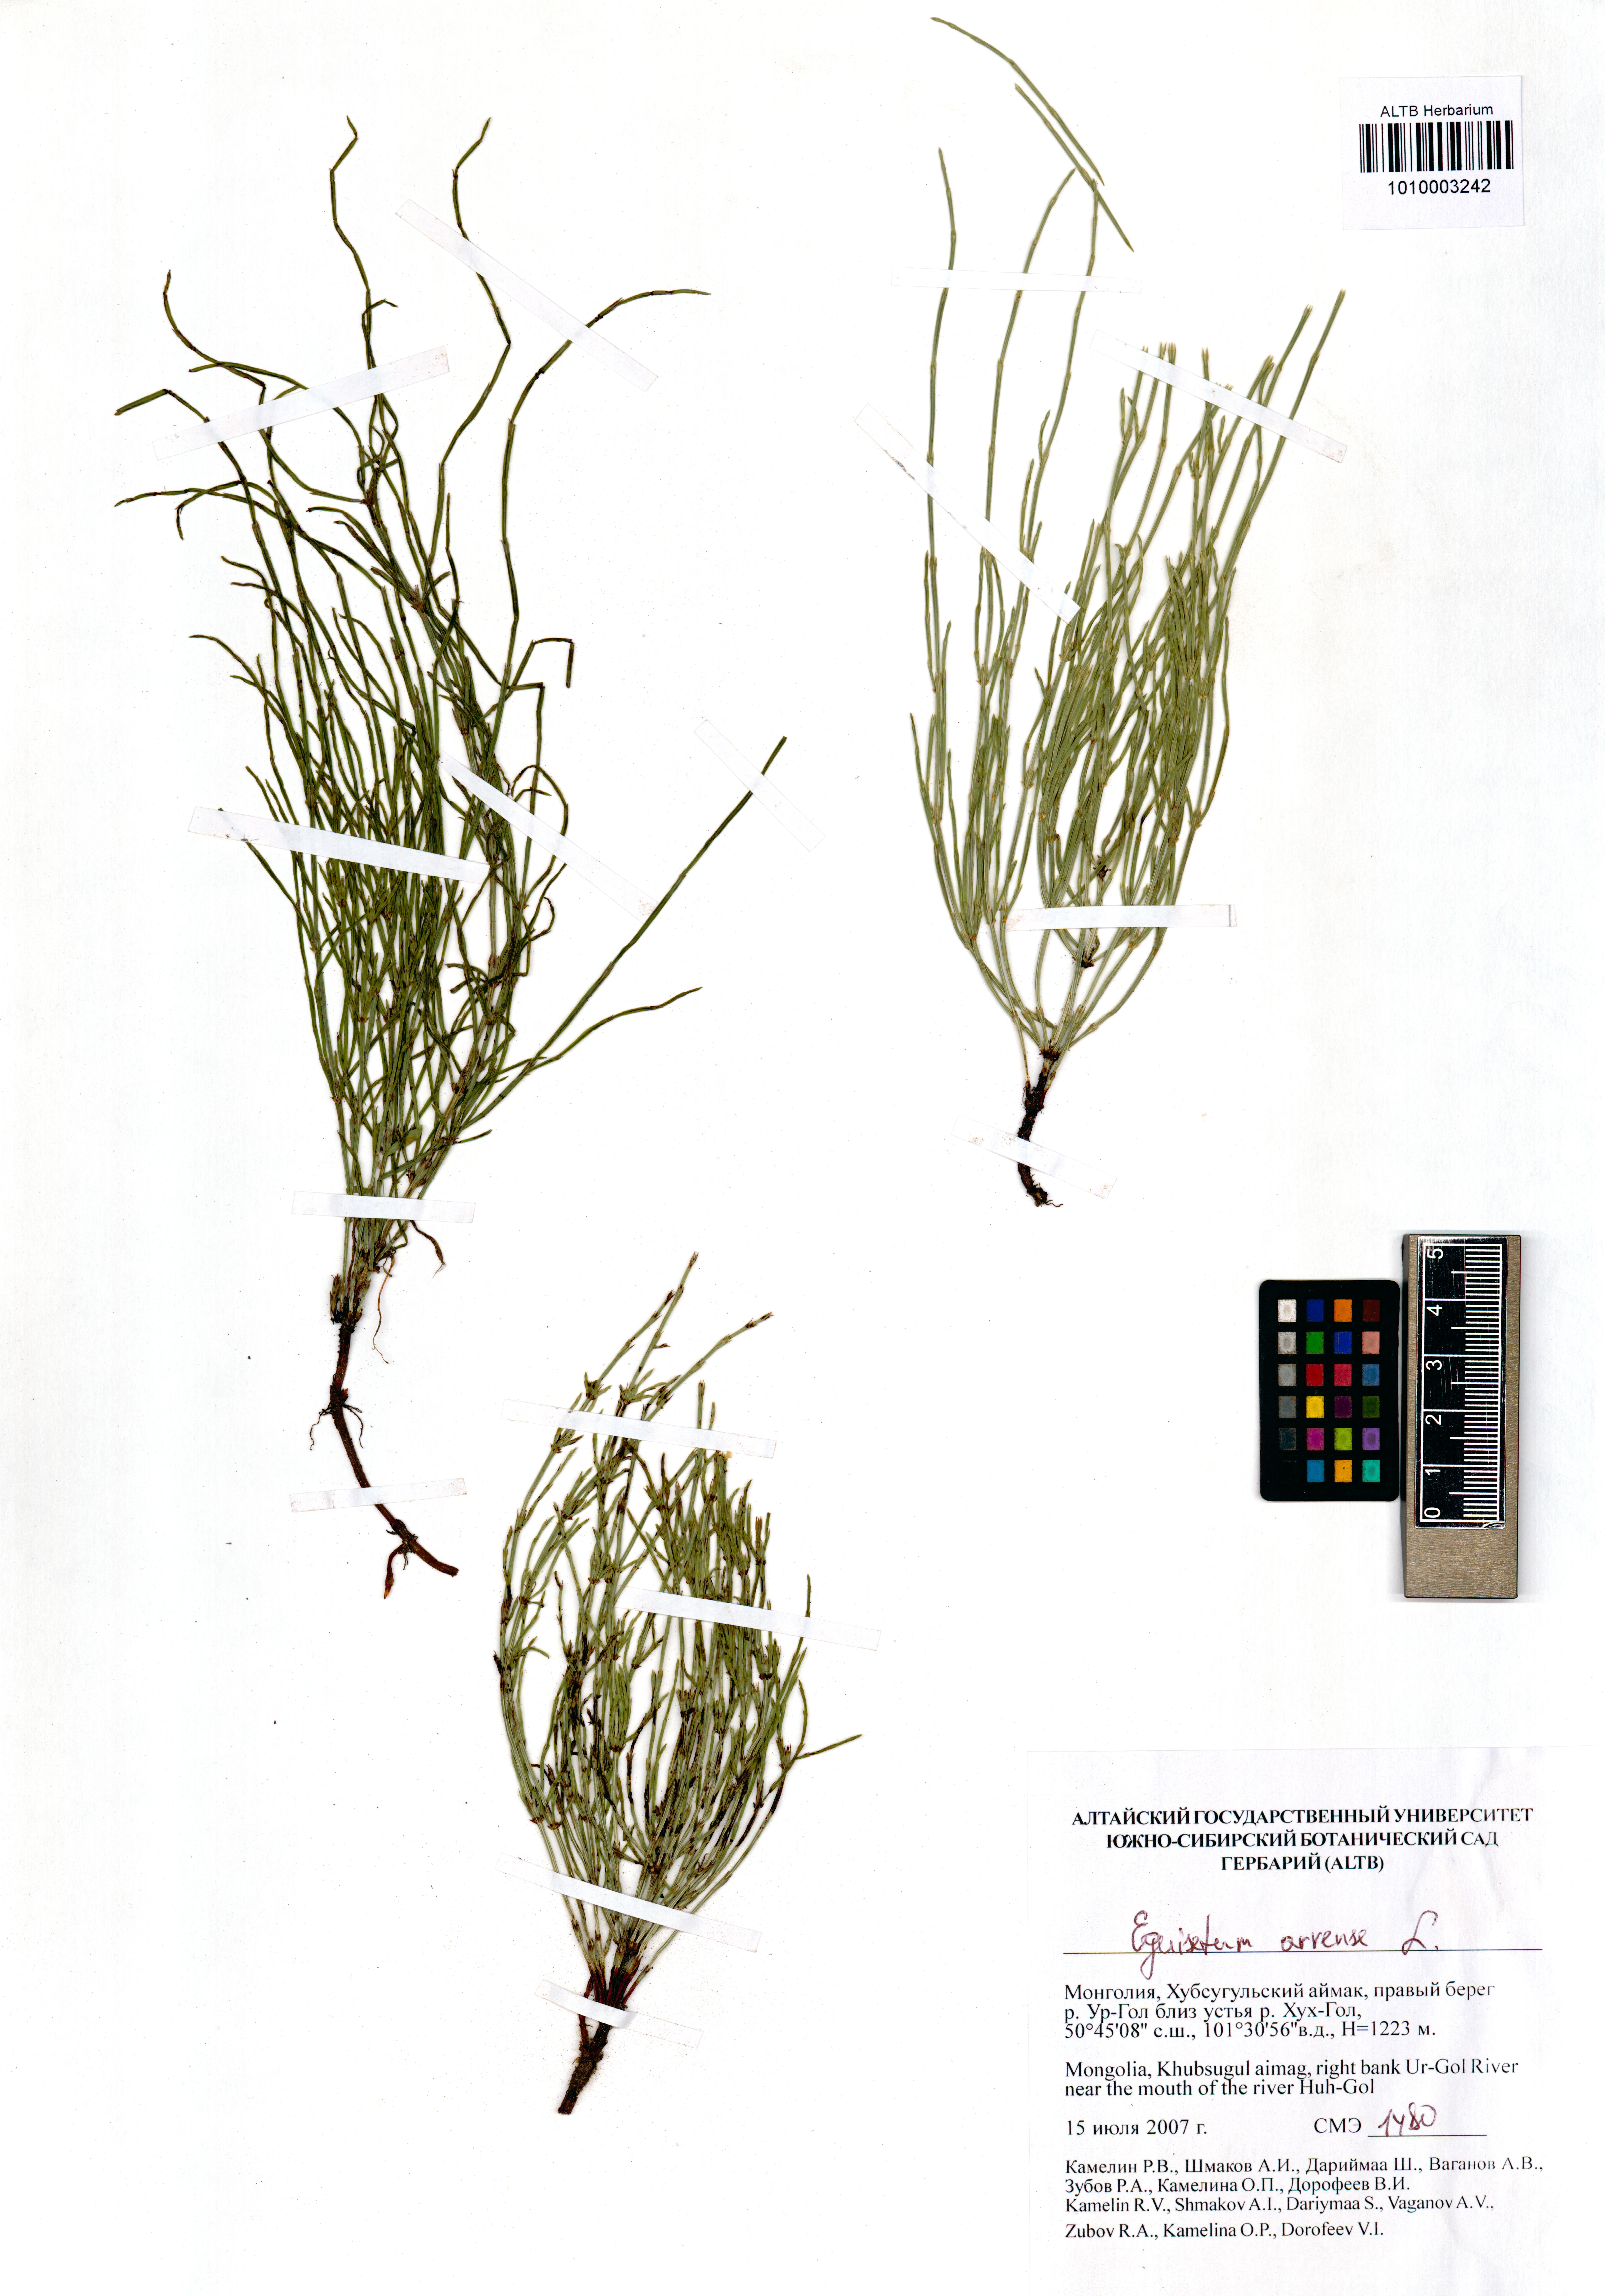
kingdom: Plantae
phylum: Tracheophyta
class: Polypodiopsida
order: Equisetales
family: Equisetaceae
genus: Equisetum
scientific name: Equisetum arvense
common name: Field horsetail
